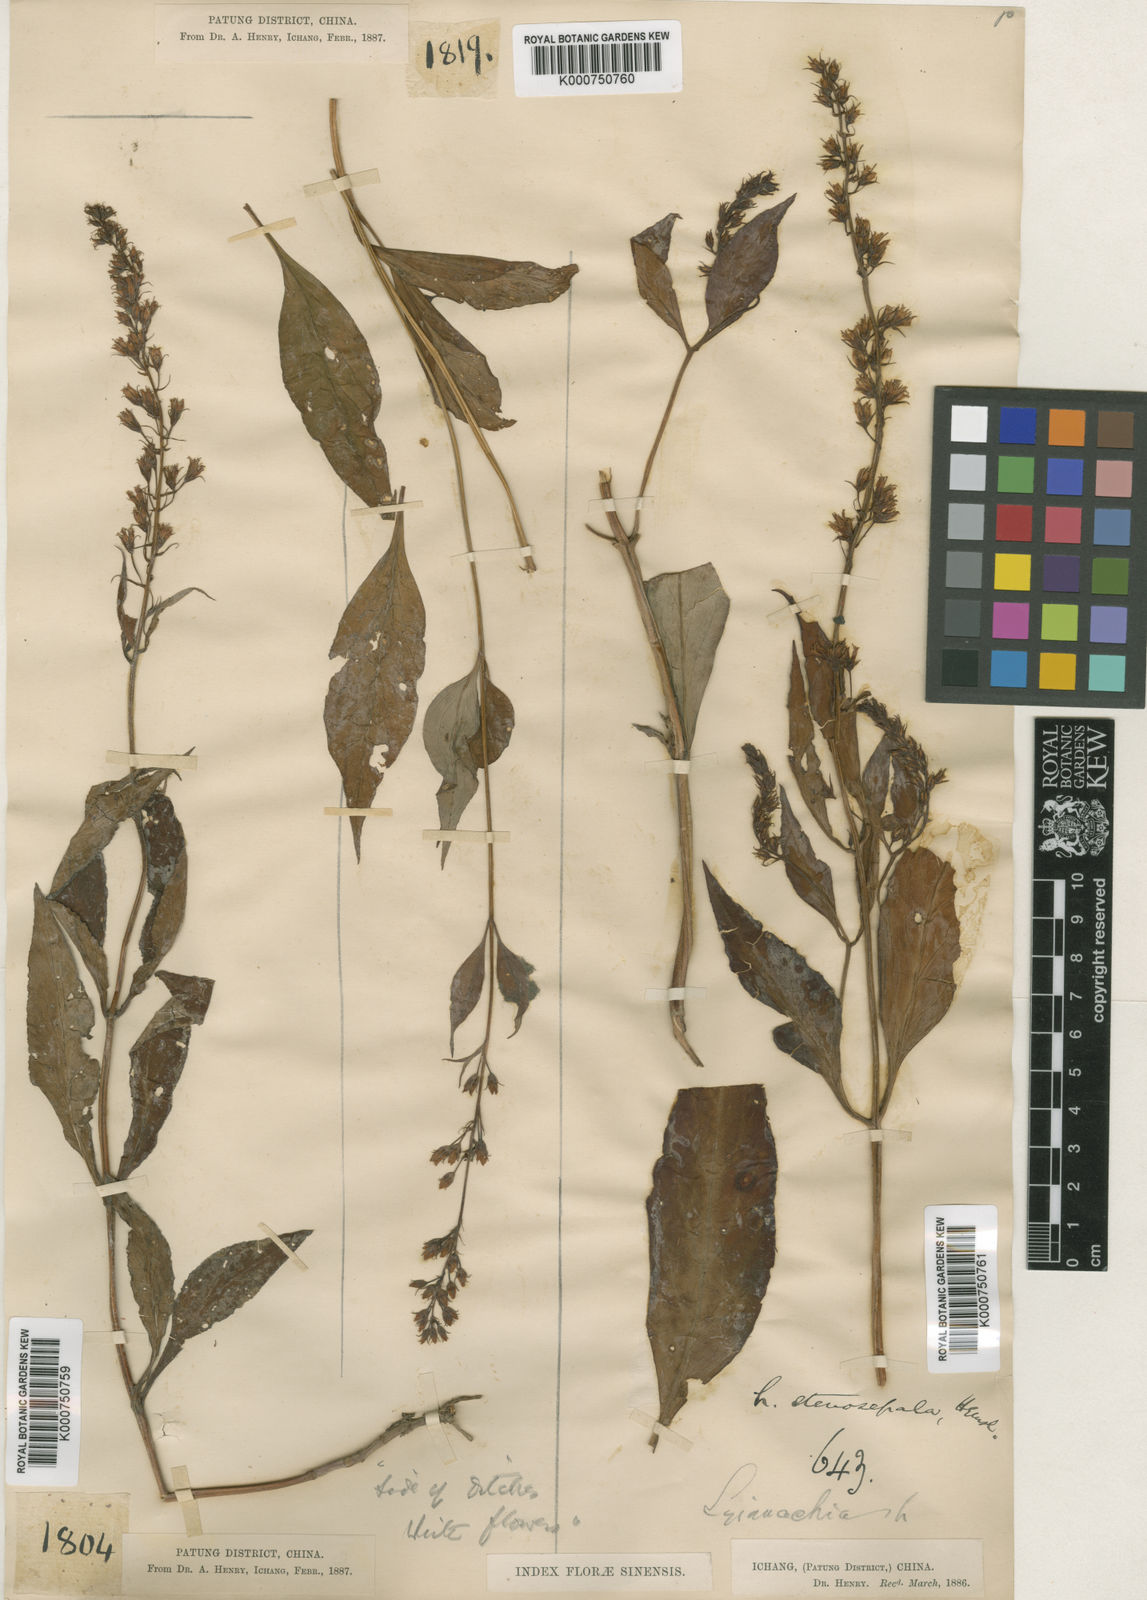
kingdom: Plantae
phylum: Tracheophyta
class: Magnoliopsida
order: Ericales
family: Primulaceae
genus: Lysimachia
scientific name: Lysimachia stenosepala
